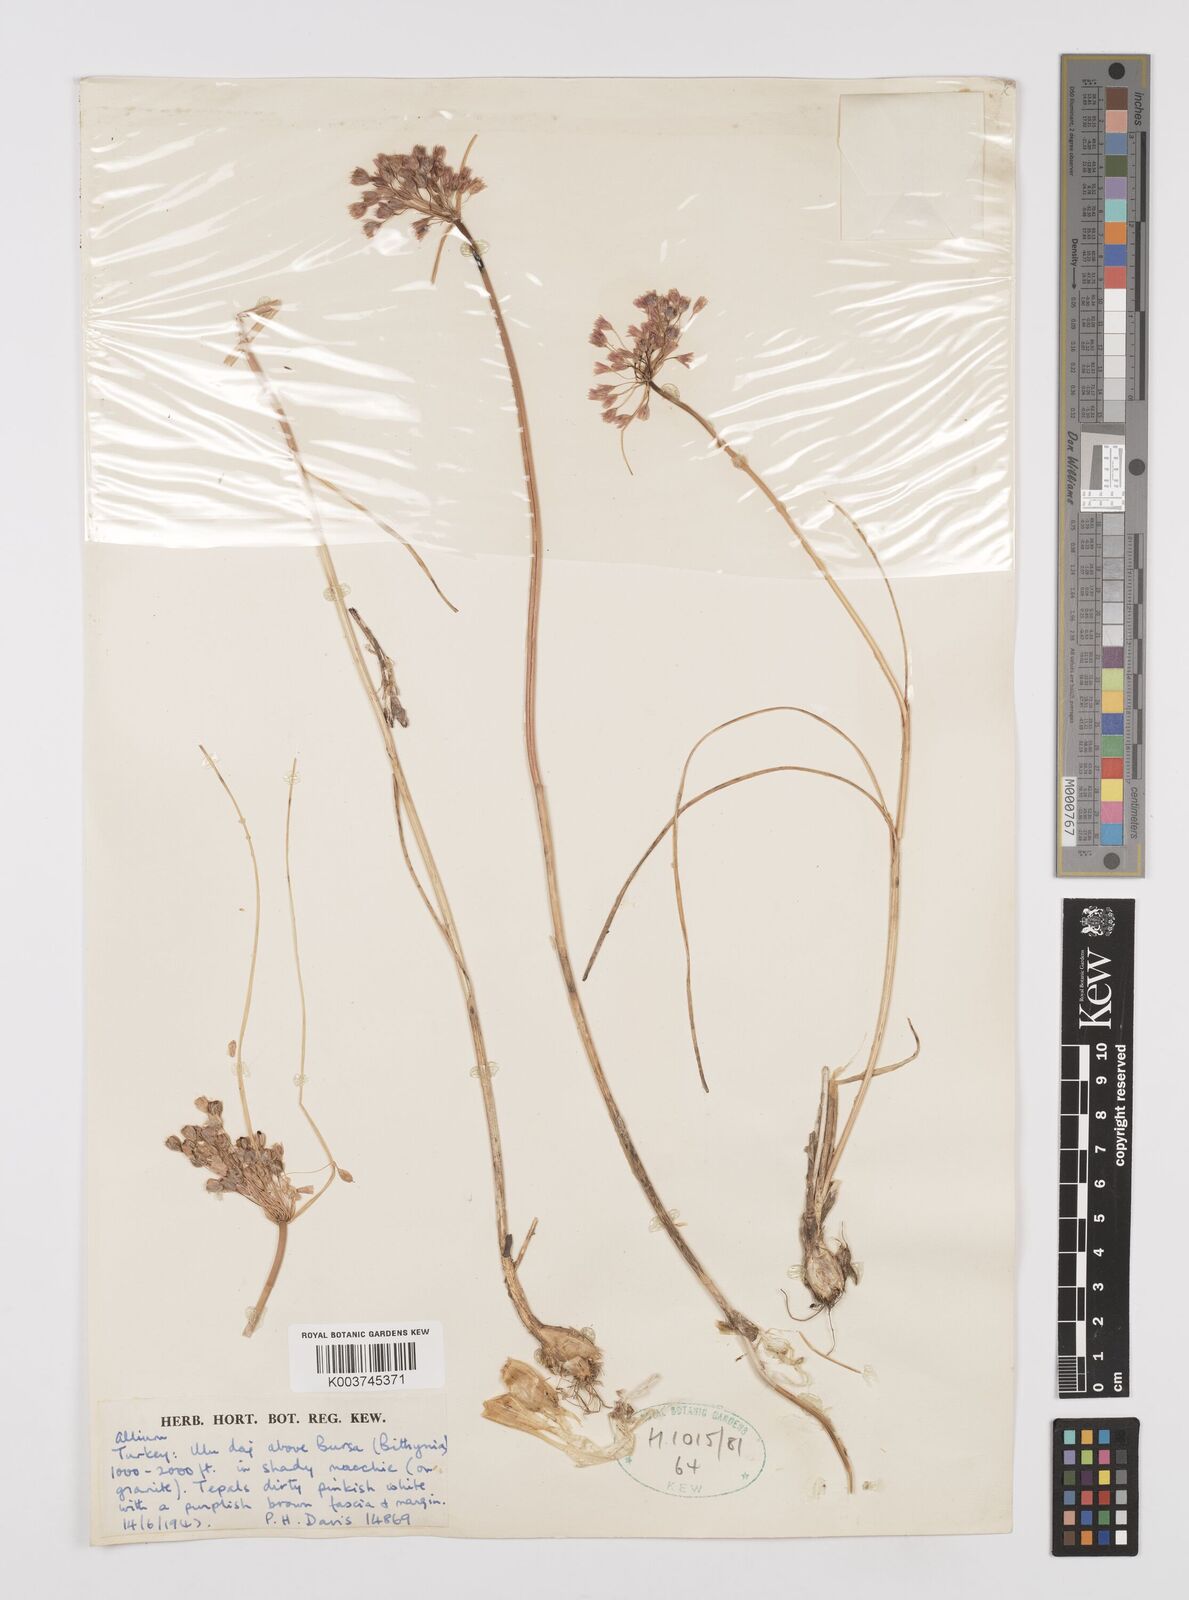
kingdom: Plantae
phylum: Tracheophyta
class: Liliopsida
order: Asparagales
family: Amaryllidaceae
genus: Allium
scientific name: Allium
